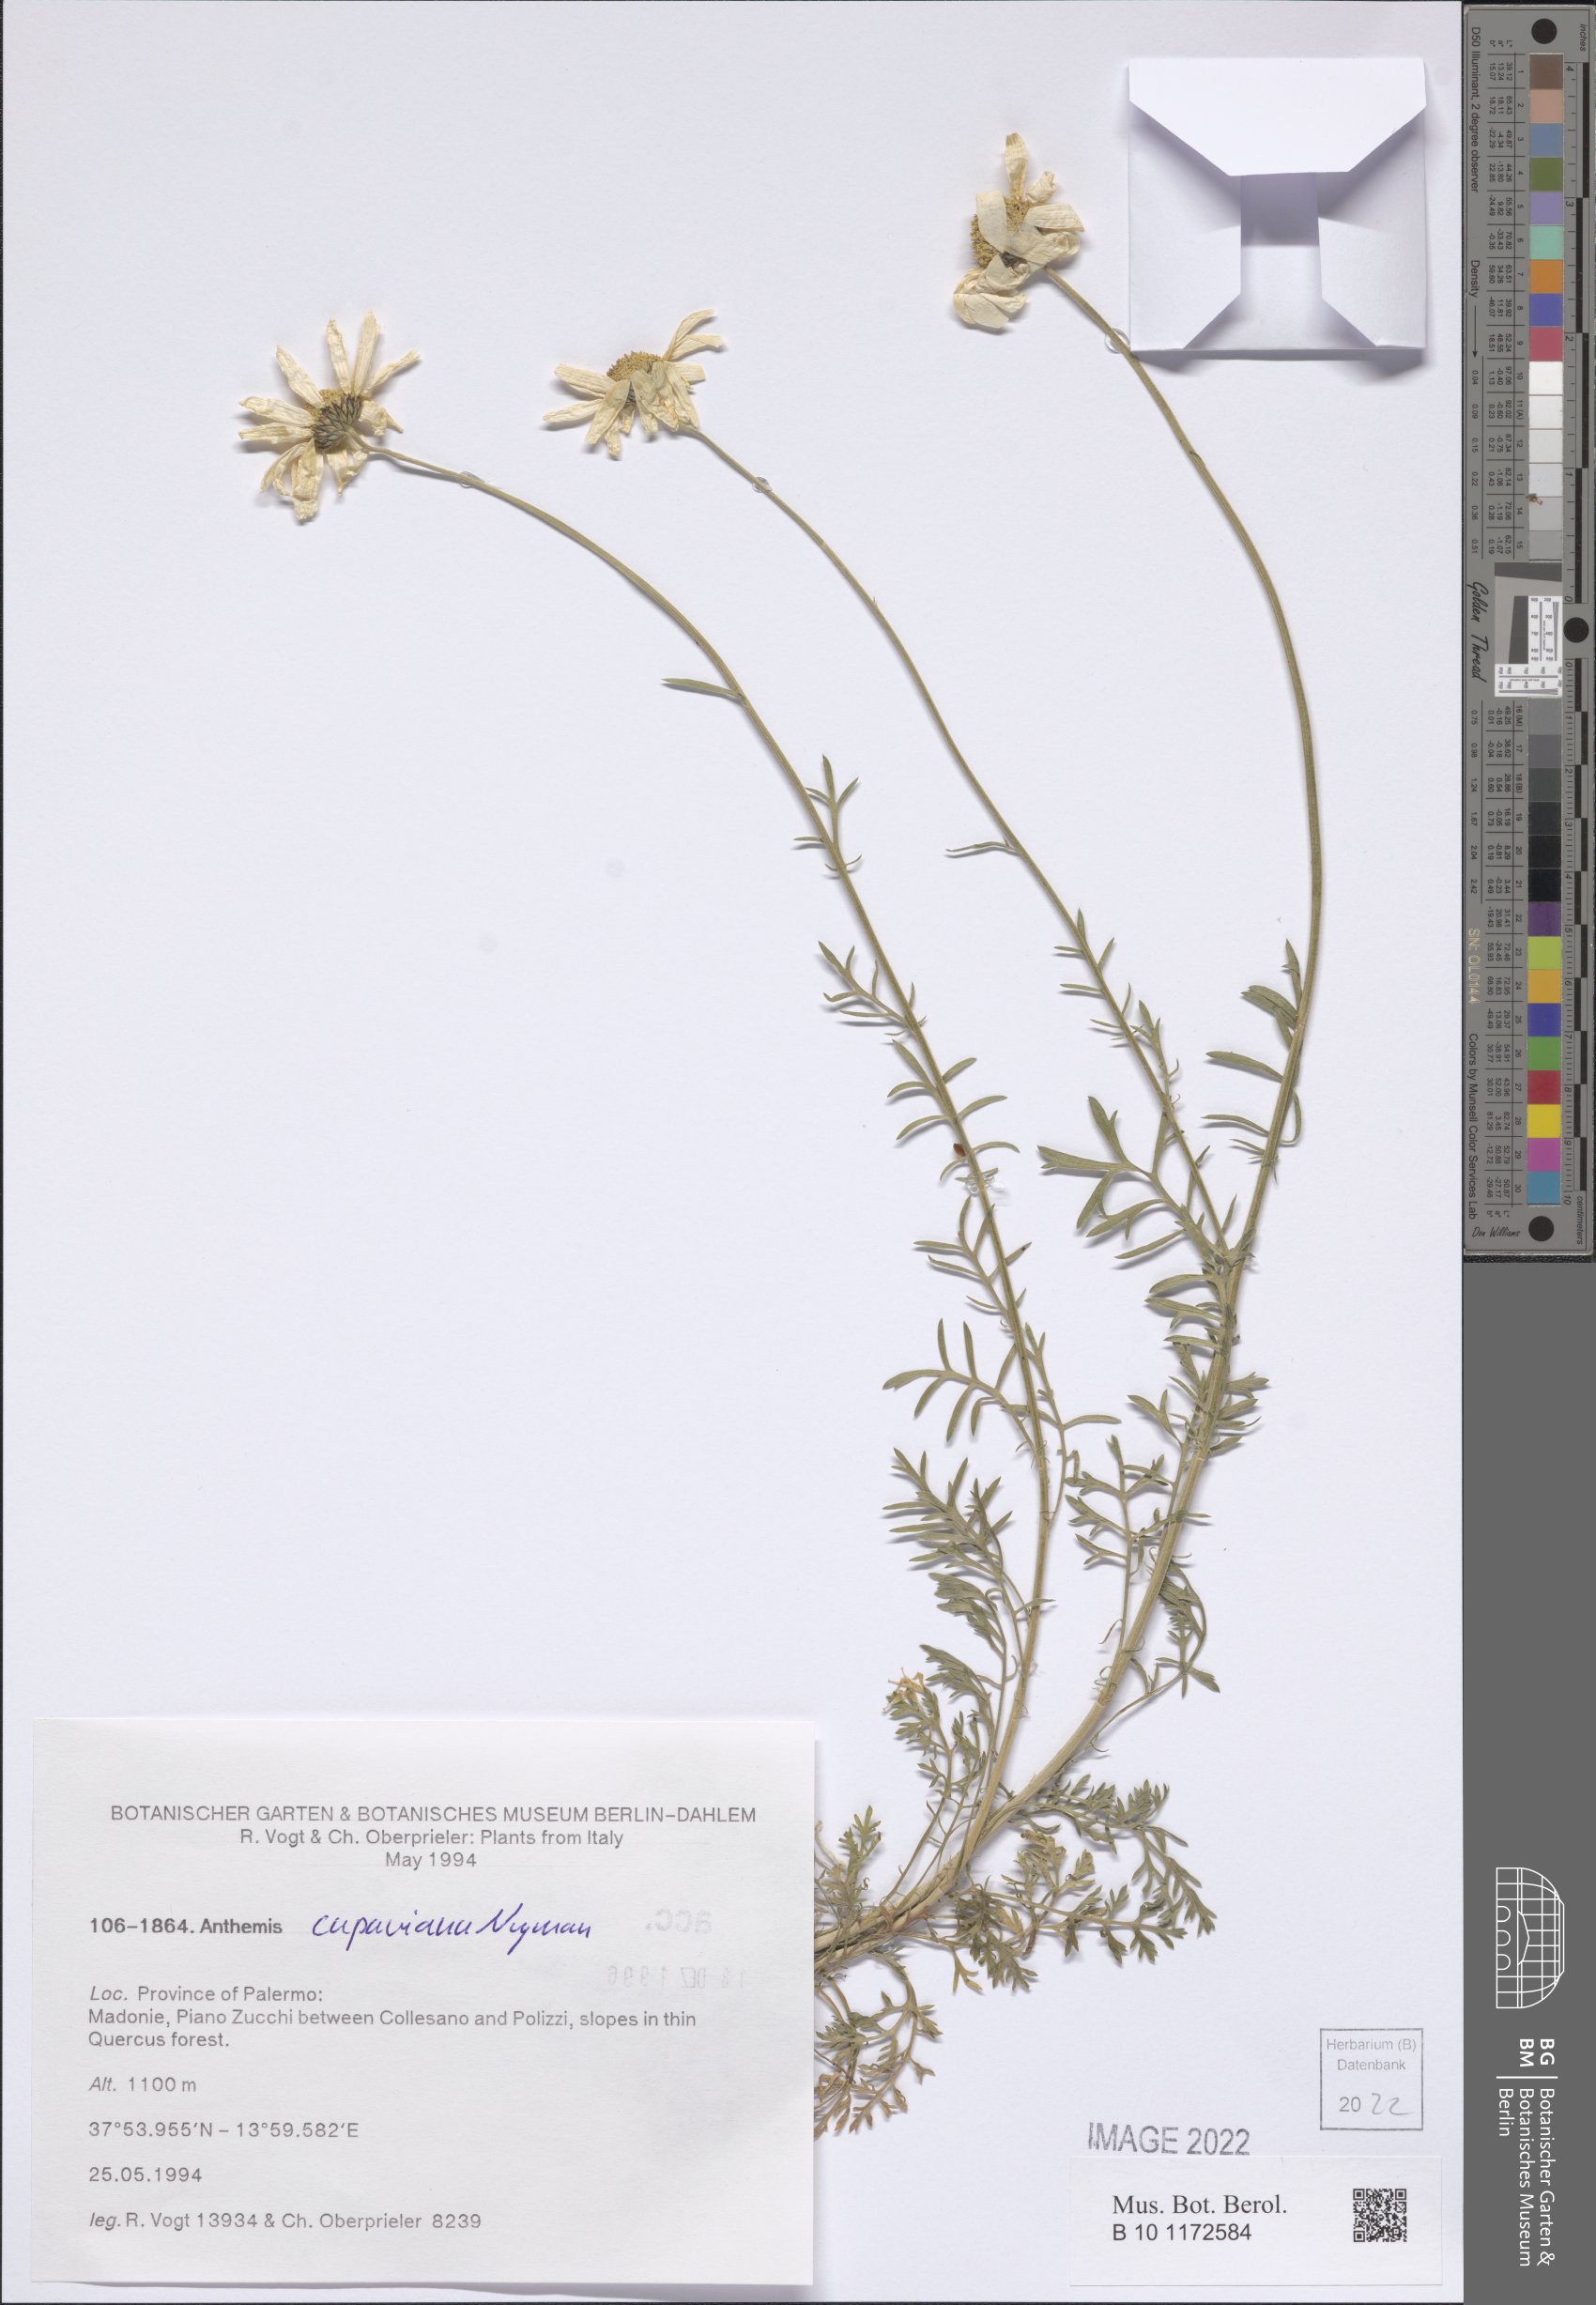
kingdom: Plantae
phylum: Tracheophyta
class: Magnoliopsida
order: Asterales
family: Asteraceae
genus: Anthemis
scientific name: Anthemis cupaniana
